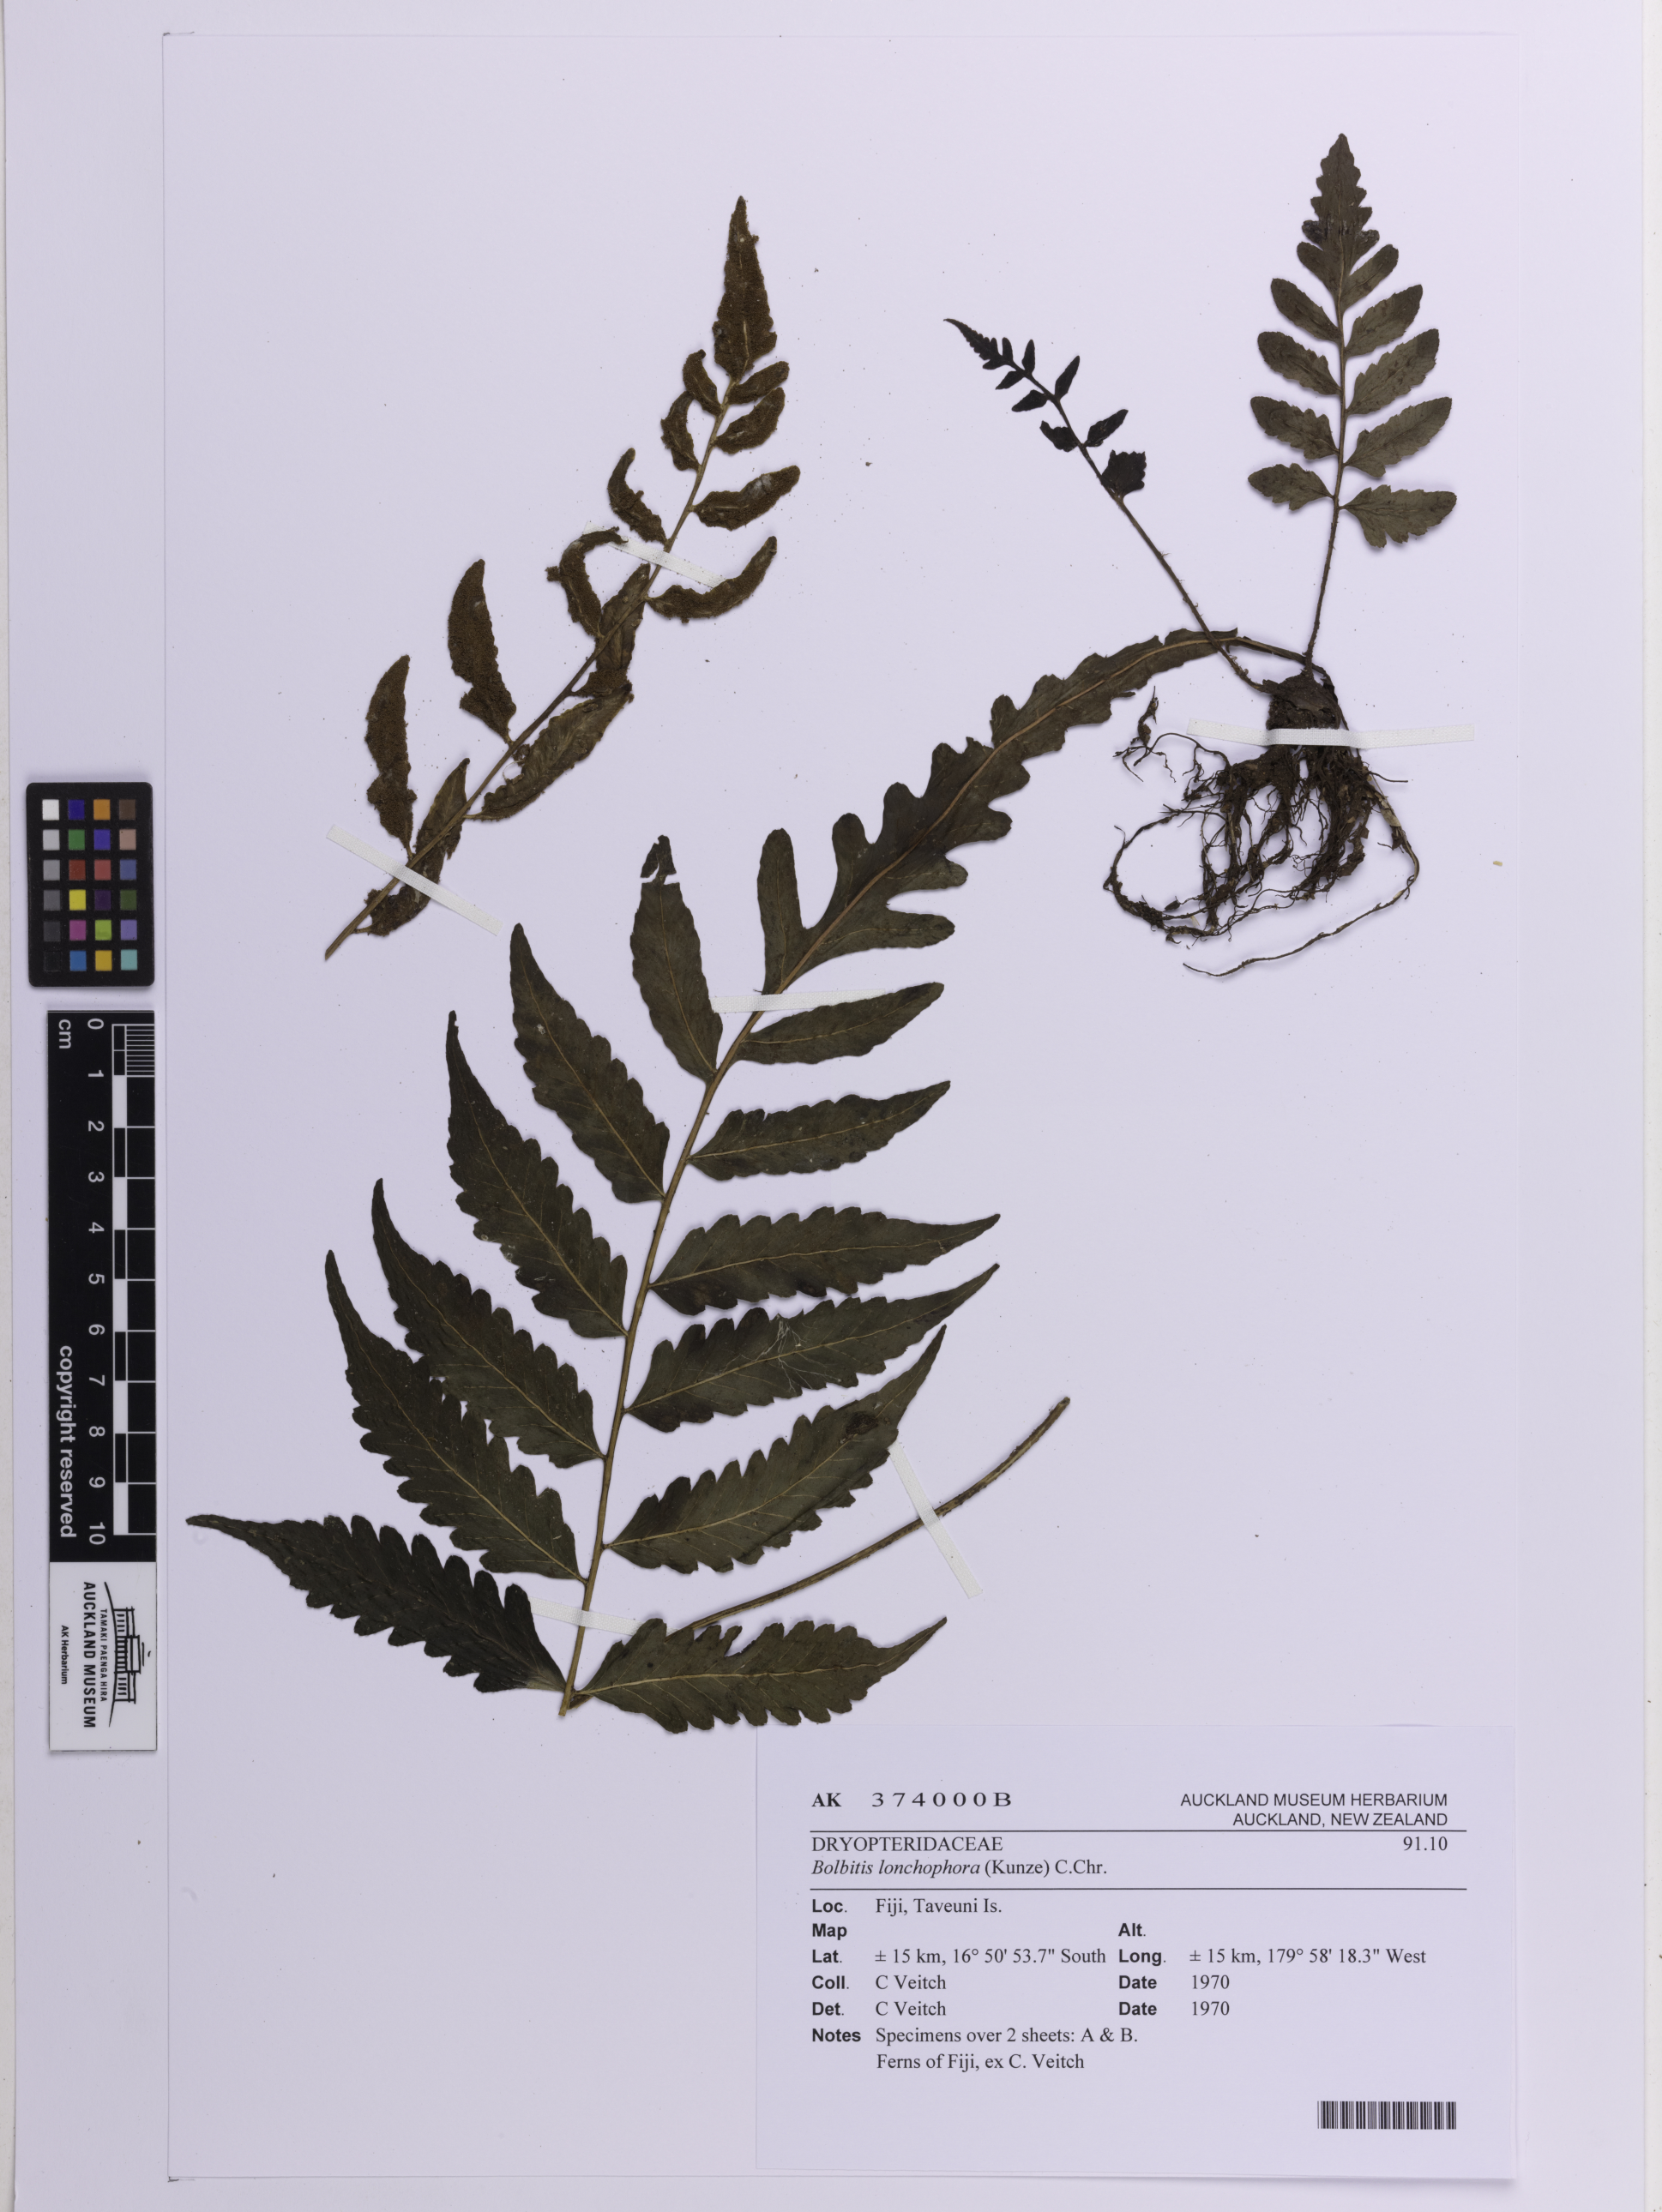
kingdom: Plantae
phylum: Tracheophyta
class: Polypodiopsida
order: Polypodiales
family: Dryopteridaceae
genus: Bolbitis
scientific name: Bolbitis lonchophora
